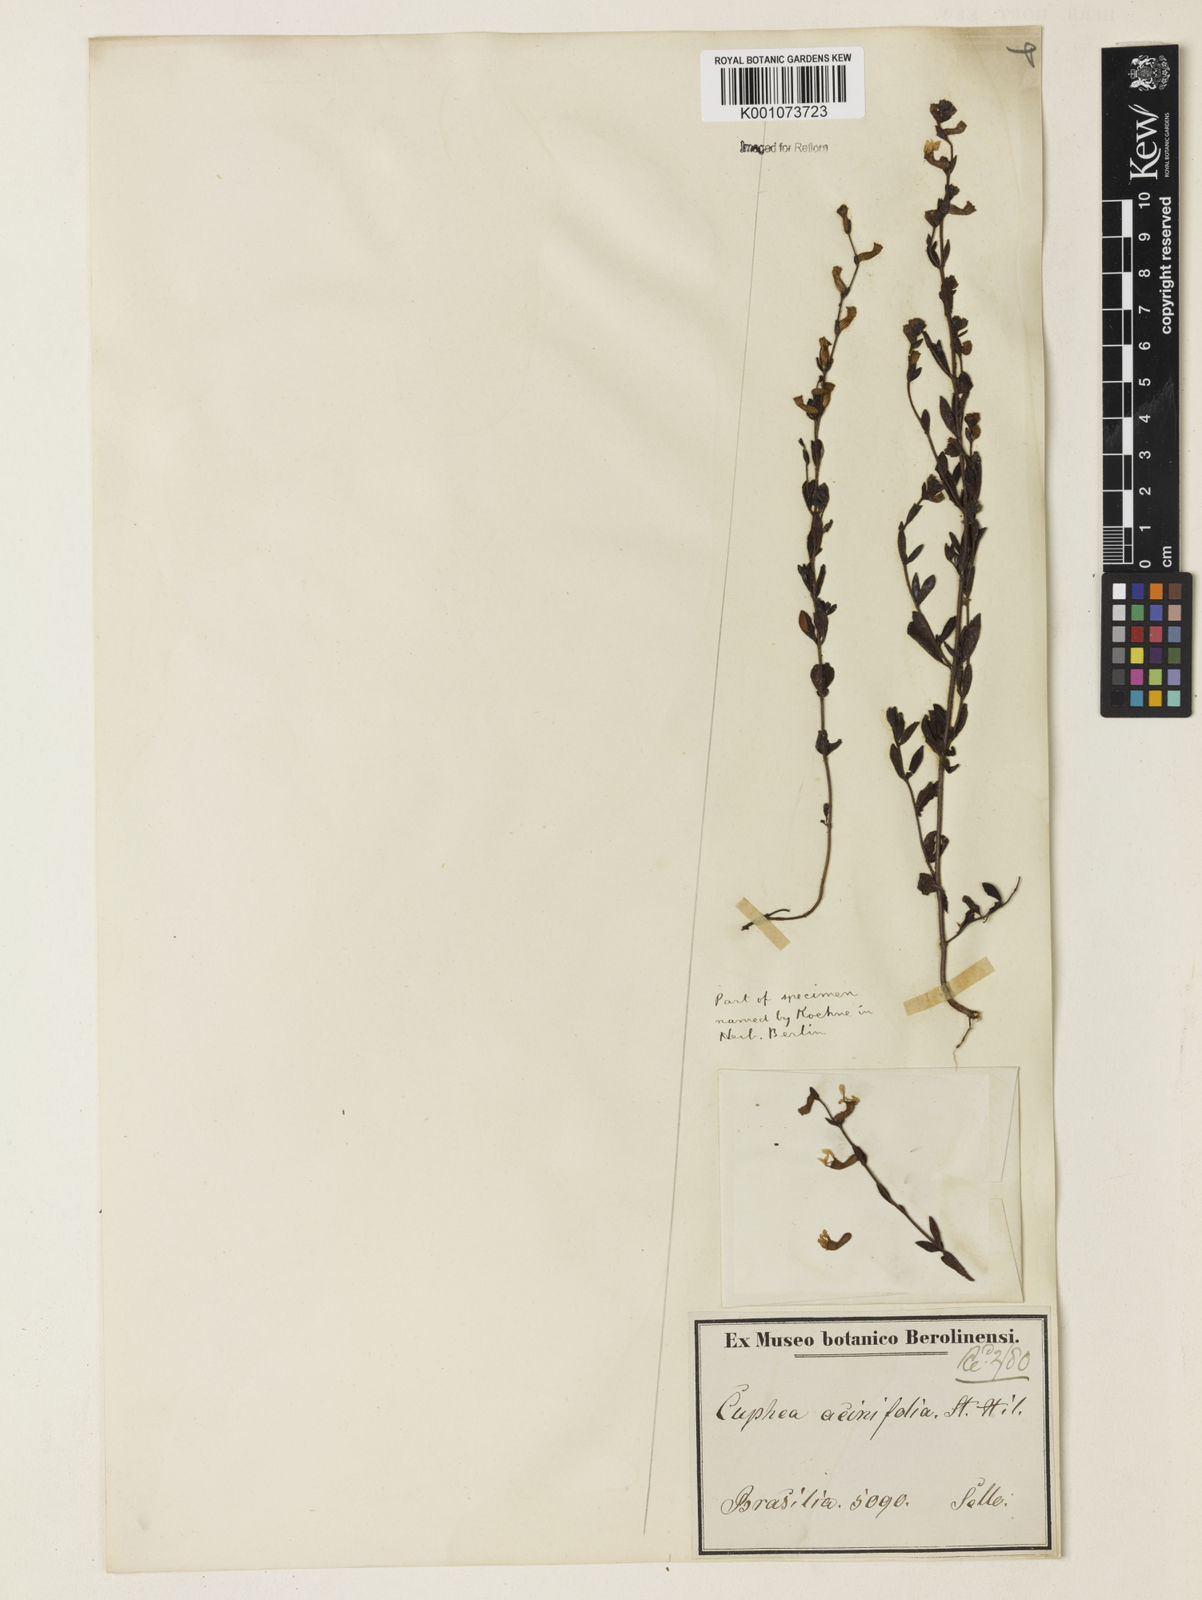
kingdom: Plantae
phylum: Tracheophyta
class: Magnoliopsida
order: Myrtales
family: Lythraceae
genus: Cuphea
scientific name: Cuphea acinifolia
